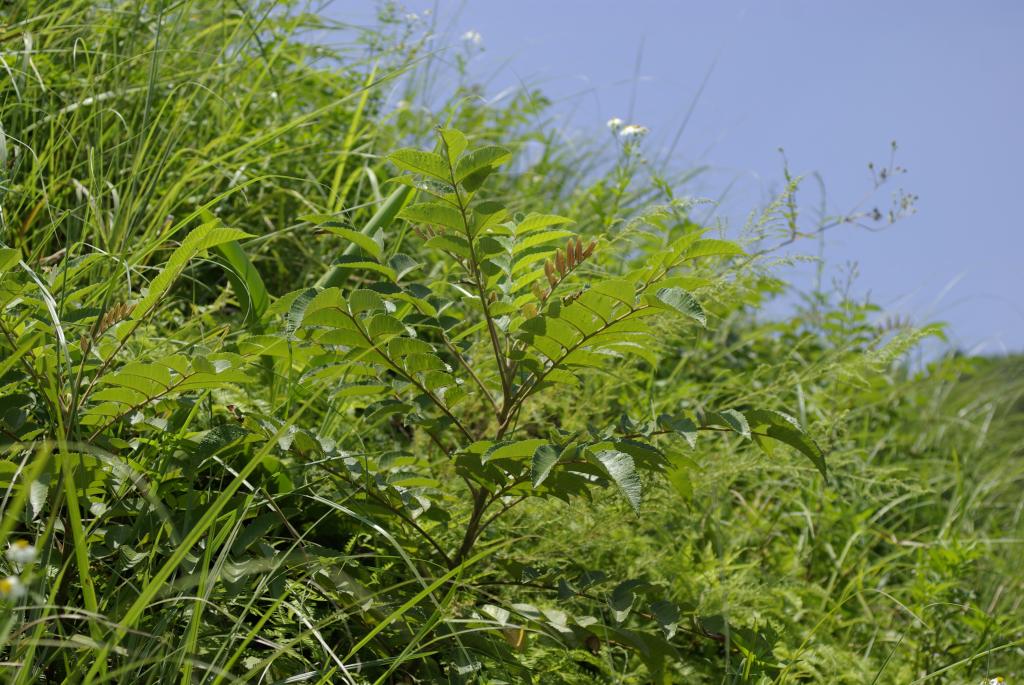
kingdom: Plantae
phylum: Tracheophyta
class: Magnoliopsida
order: Sapindales
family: Anacardiaceae
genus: Rhus
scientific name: Rhus chinensis
